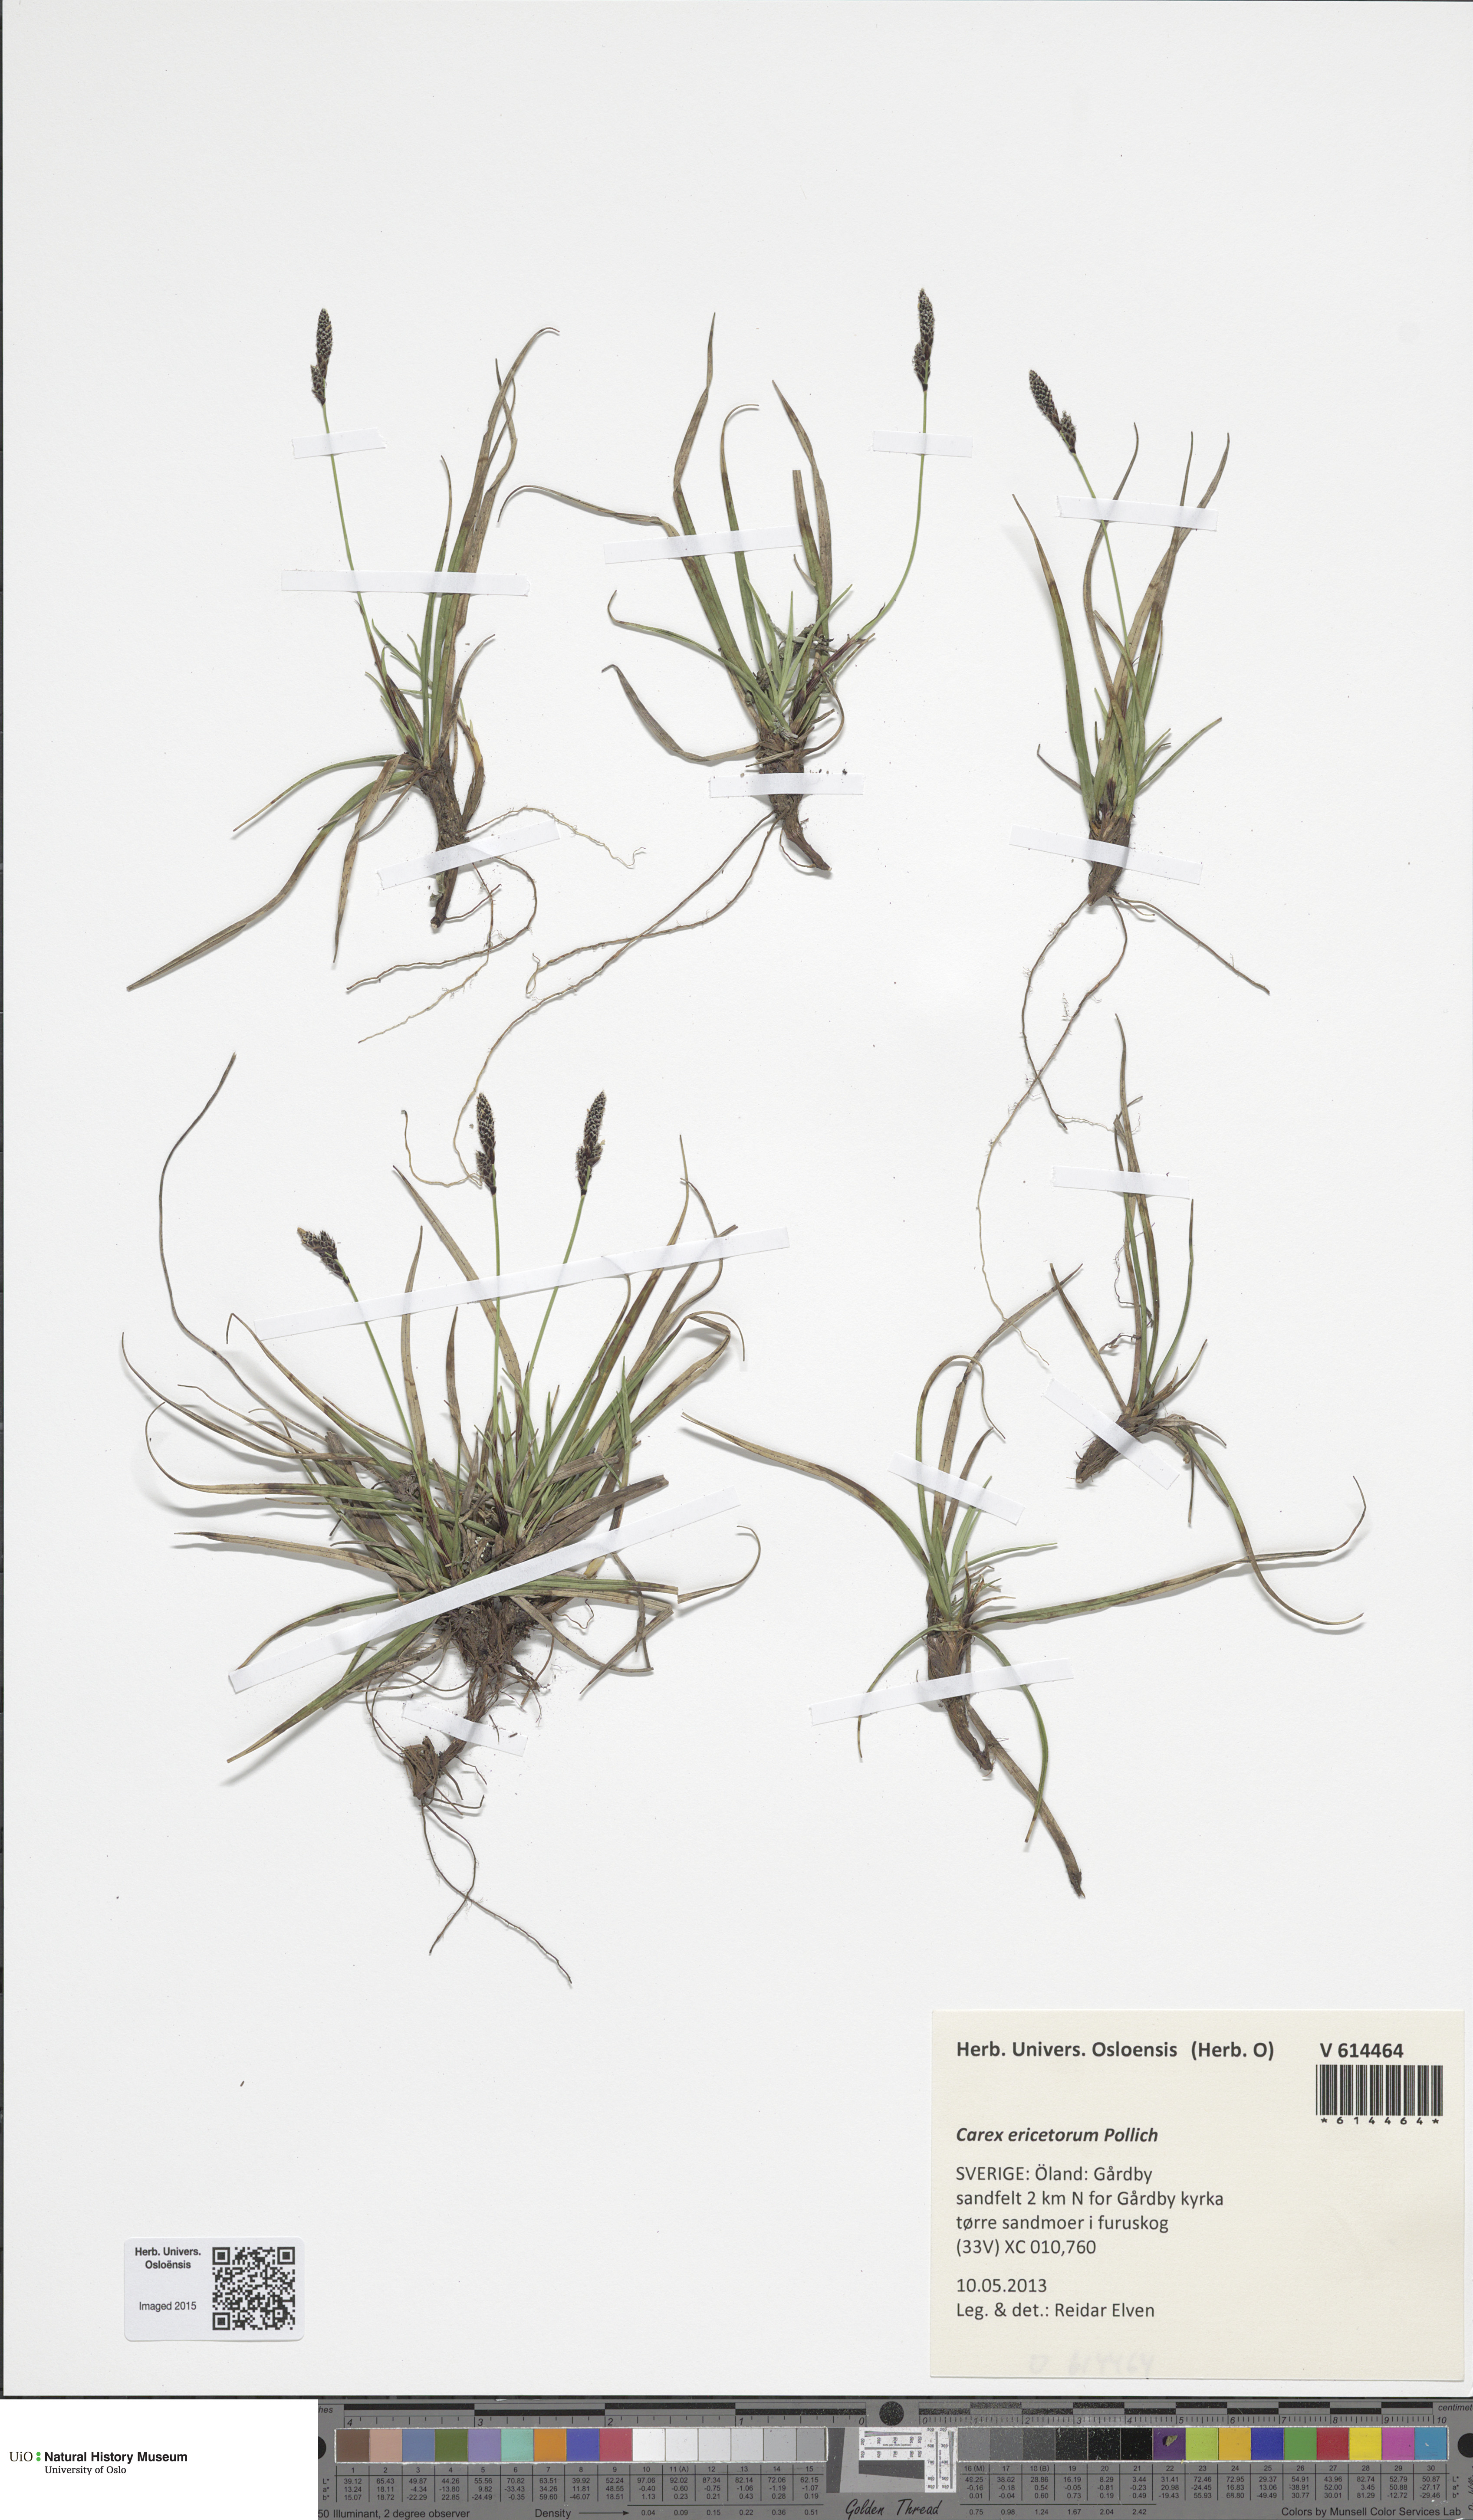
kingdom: Plantae
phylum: Tracheophyta
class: Liliopsida
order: Poales
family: Cyperaceae
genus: Carex
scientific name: Carex ericetorum
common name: Rare spring-sedge
